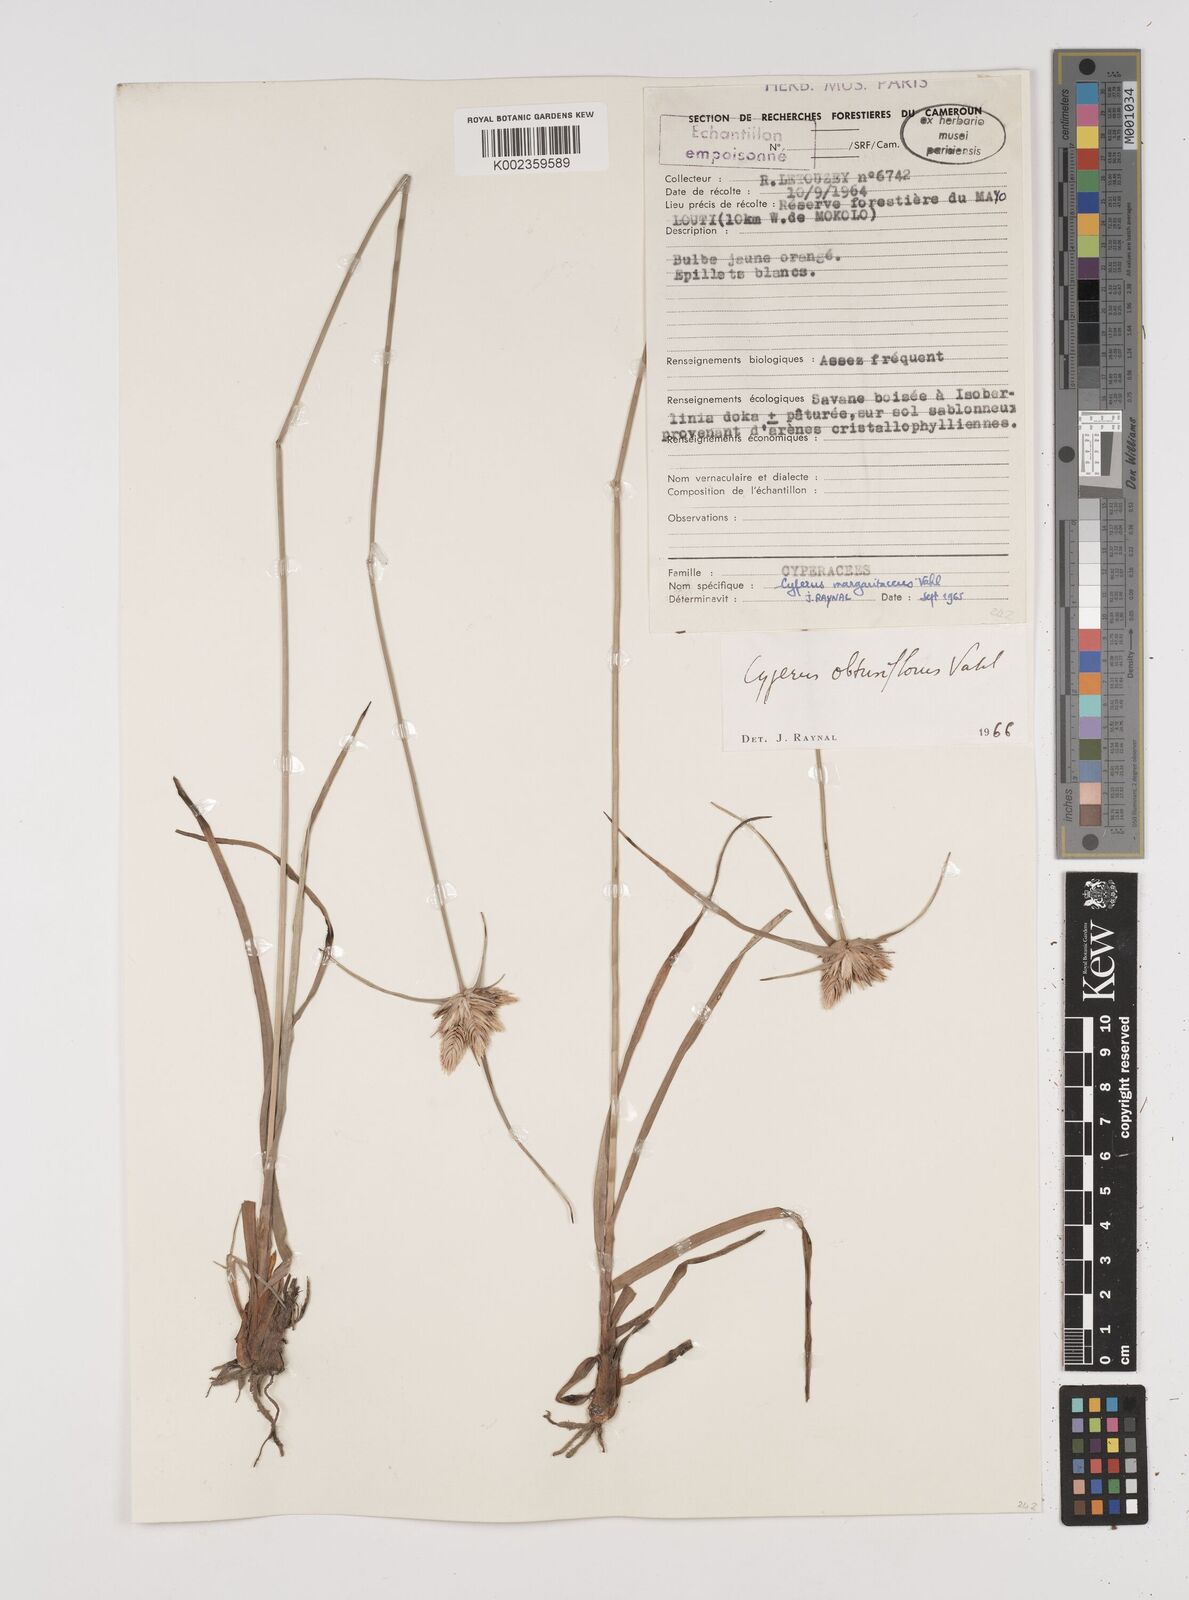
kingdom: Plantae
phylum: Tracheophyta
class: Liliopsida
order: Poales
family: Cyperaceae
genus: Cyperus
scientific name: Cyperus niveus
